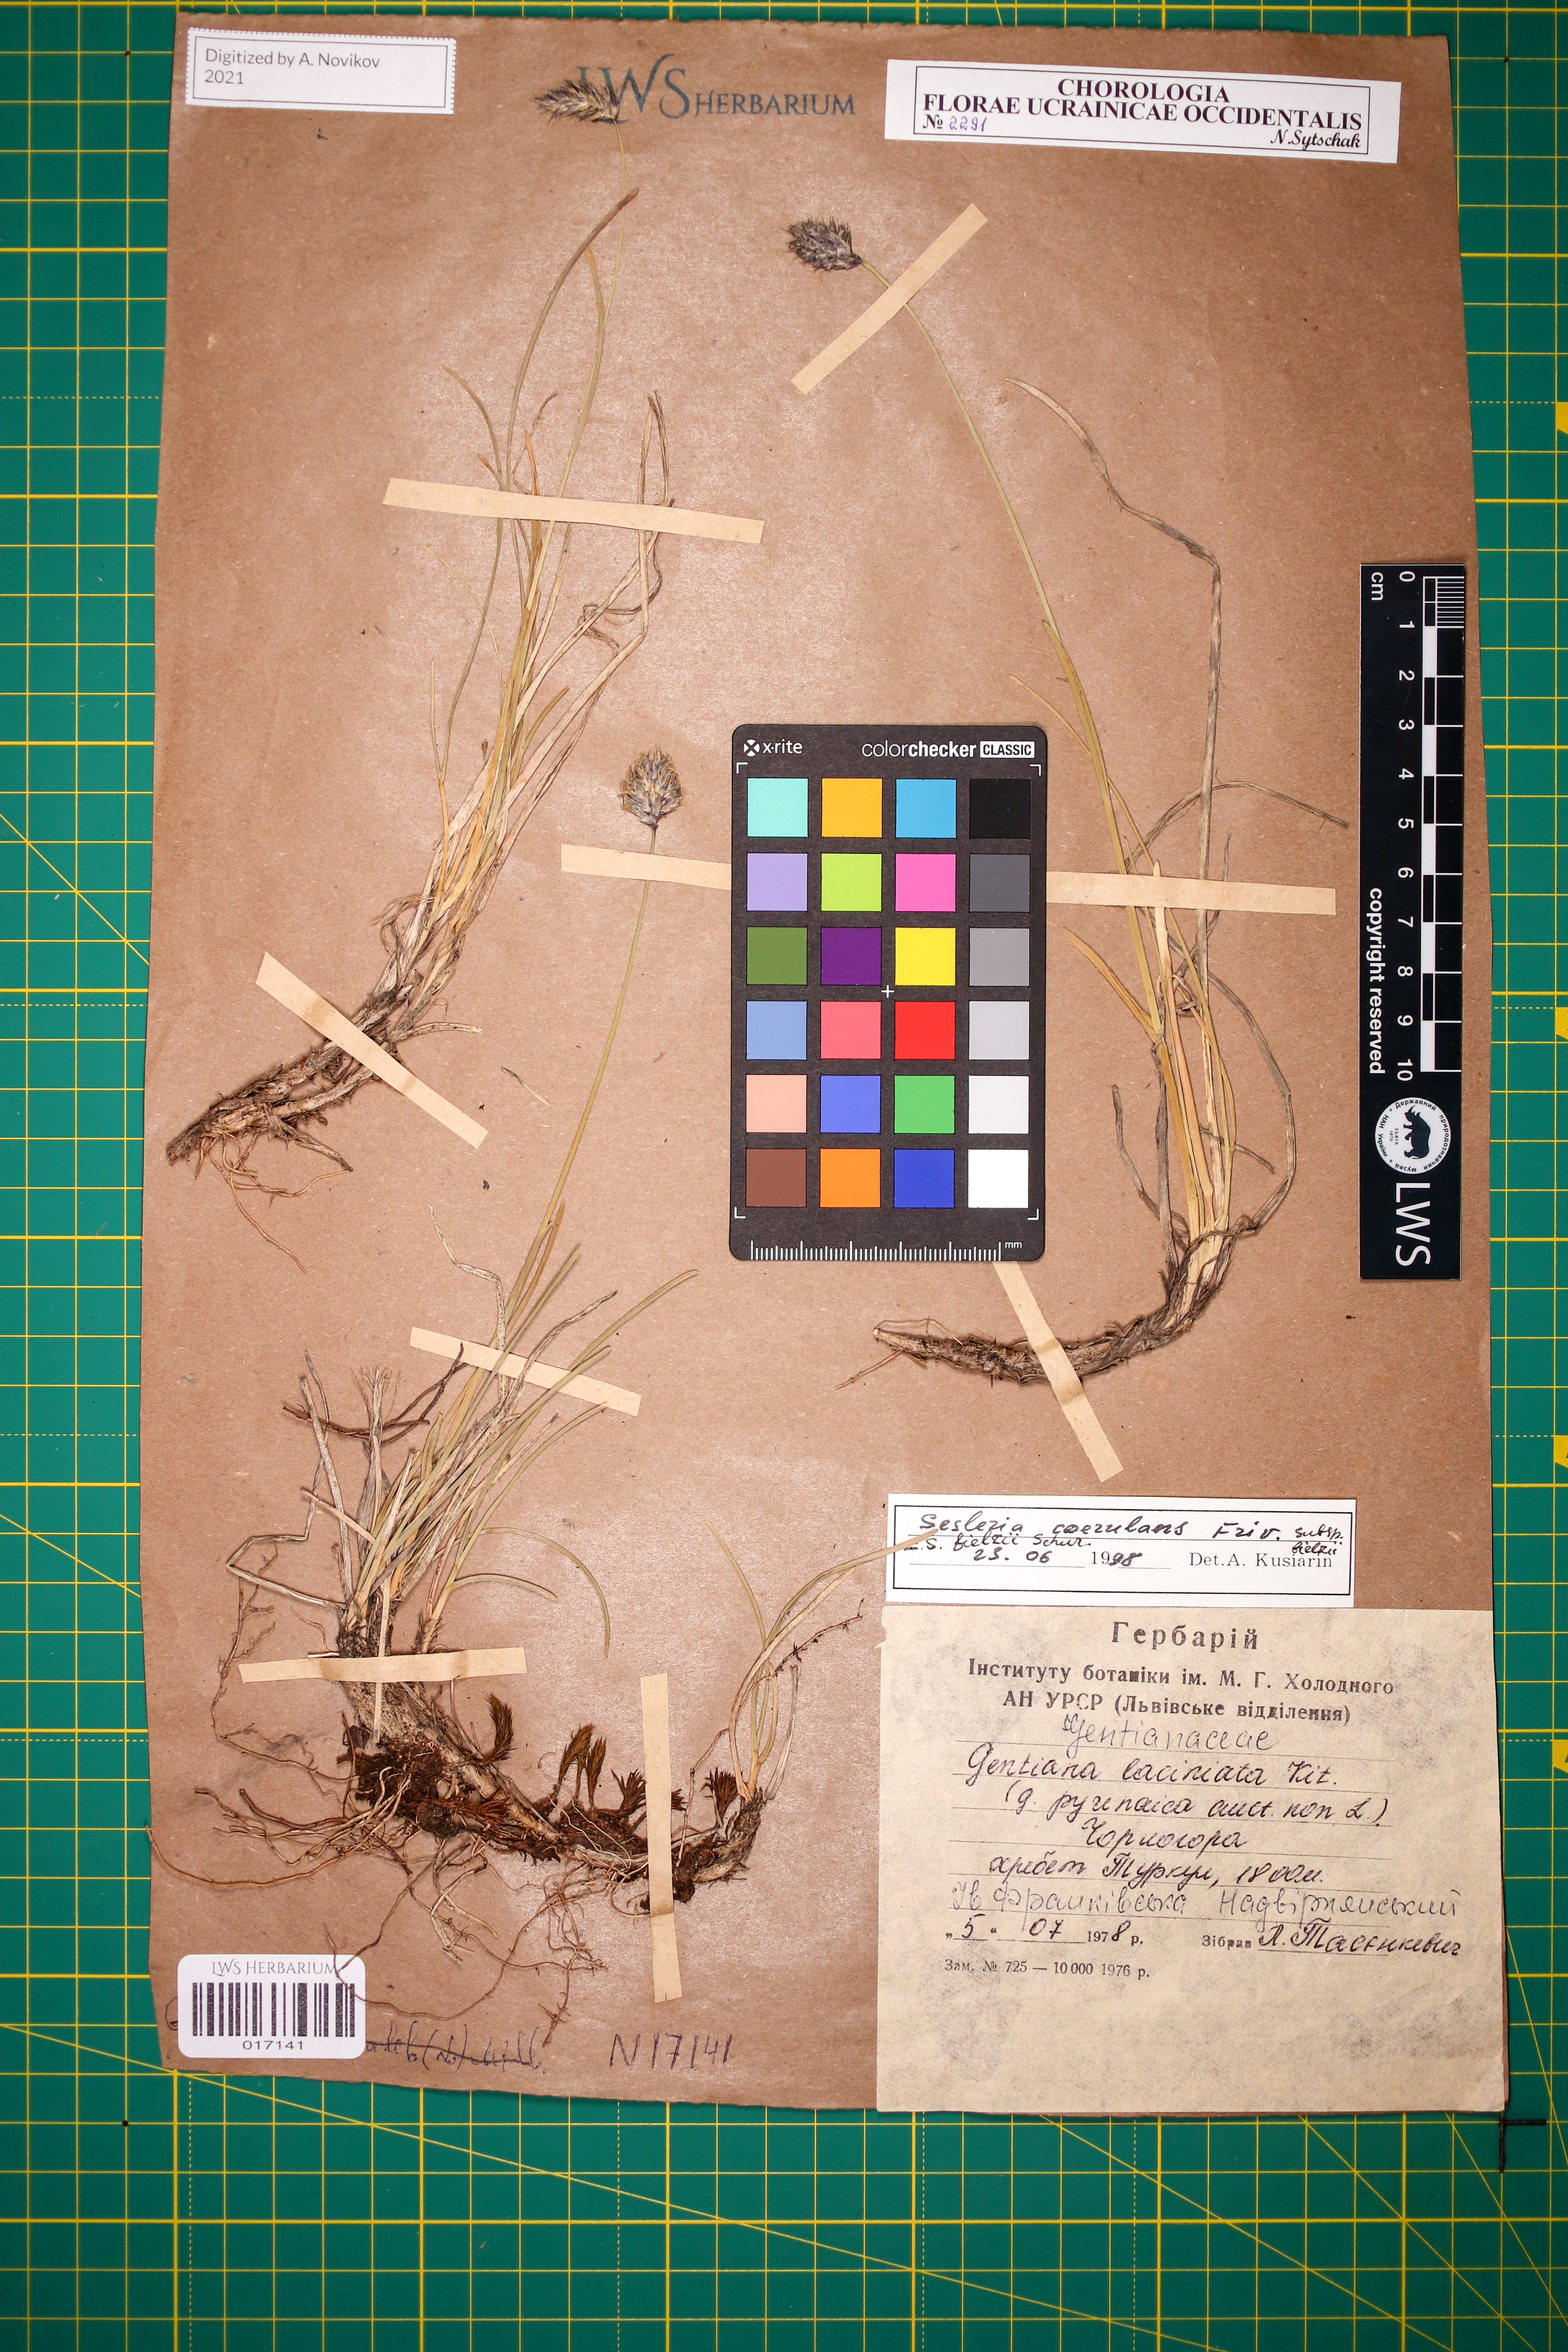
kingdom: Plantae
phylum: Tracheophyta
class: Liliopsida
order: Poales
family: Poaceae
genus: Sesleria
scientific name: Sesleria bielzii
